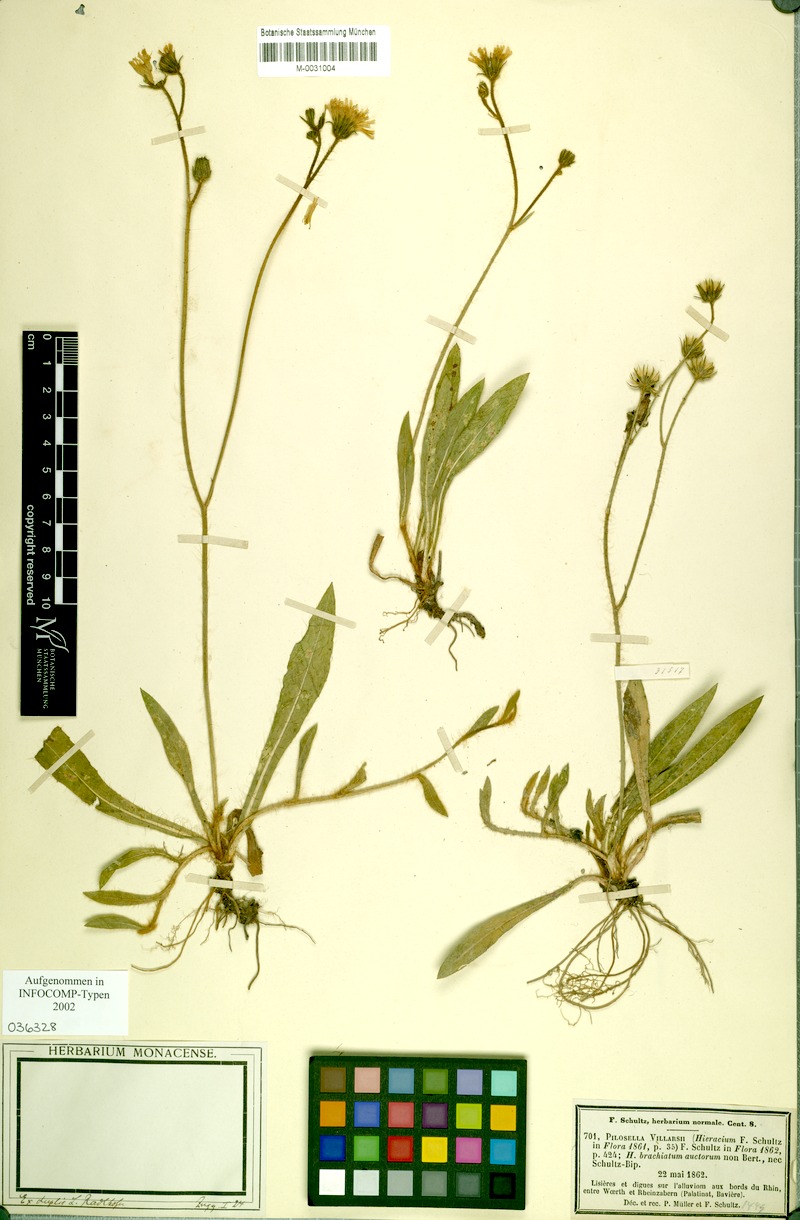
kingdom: Plantae
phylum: Tracheophyta
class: Magnoliopsida
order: Asterales
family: Asteraceae
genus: Pilosella
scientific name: Pilosella acutifolia
